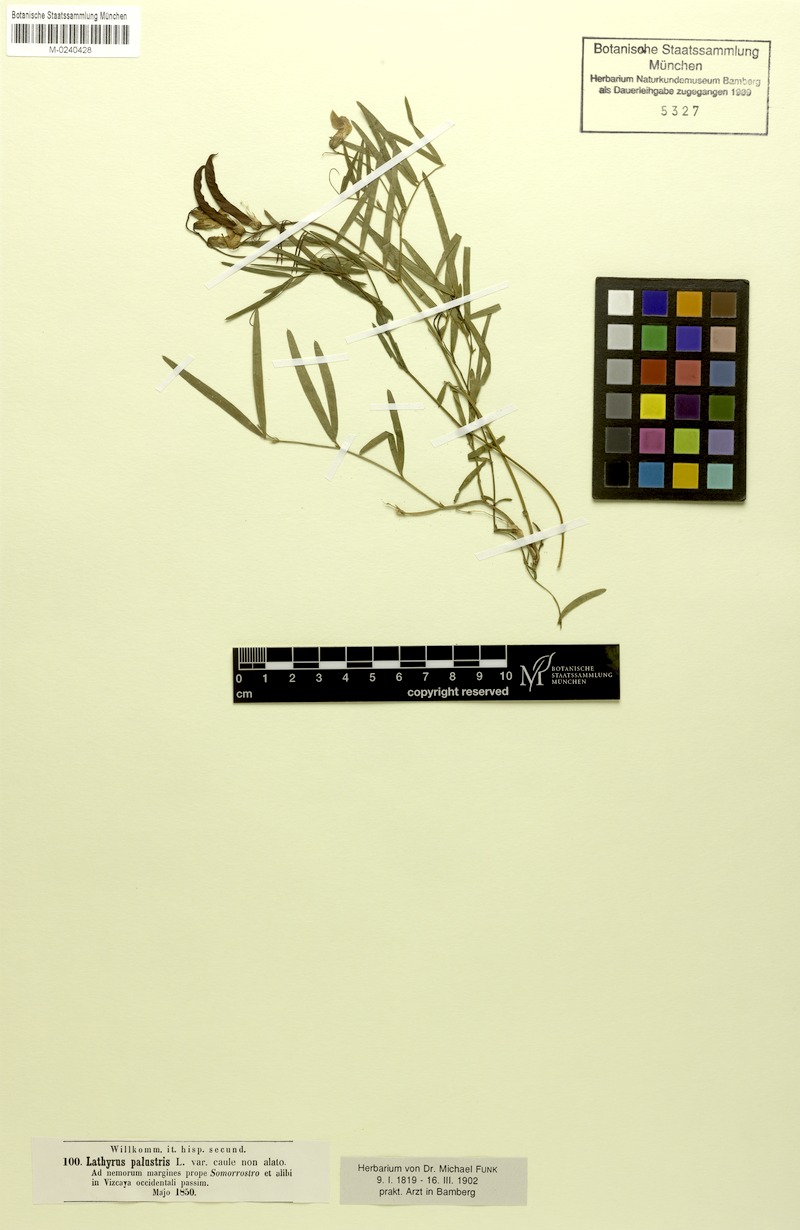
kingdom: Plantae
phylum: Tracheophyta
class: Magnoliopsida
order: Fabales
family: Fabaceae
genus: Lathyrus
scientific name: Lathyrus graminifolius
